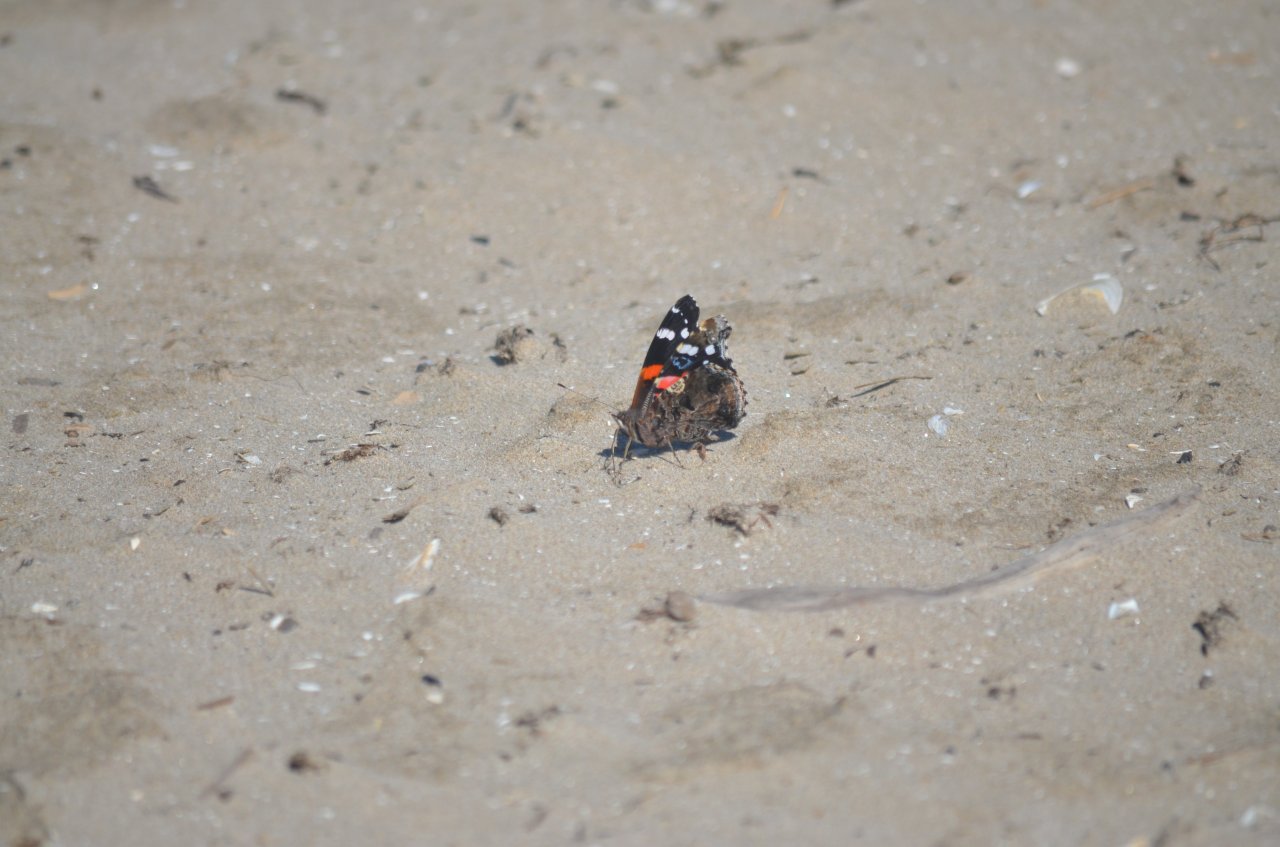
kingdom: Animalia
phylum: Arthropoda
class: Insecta
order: Lepidoptera
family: Nymphalidae
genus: Vanessa
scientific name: Vanessa atalanta
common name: Red Admiral
